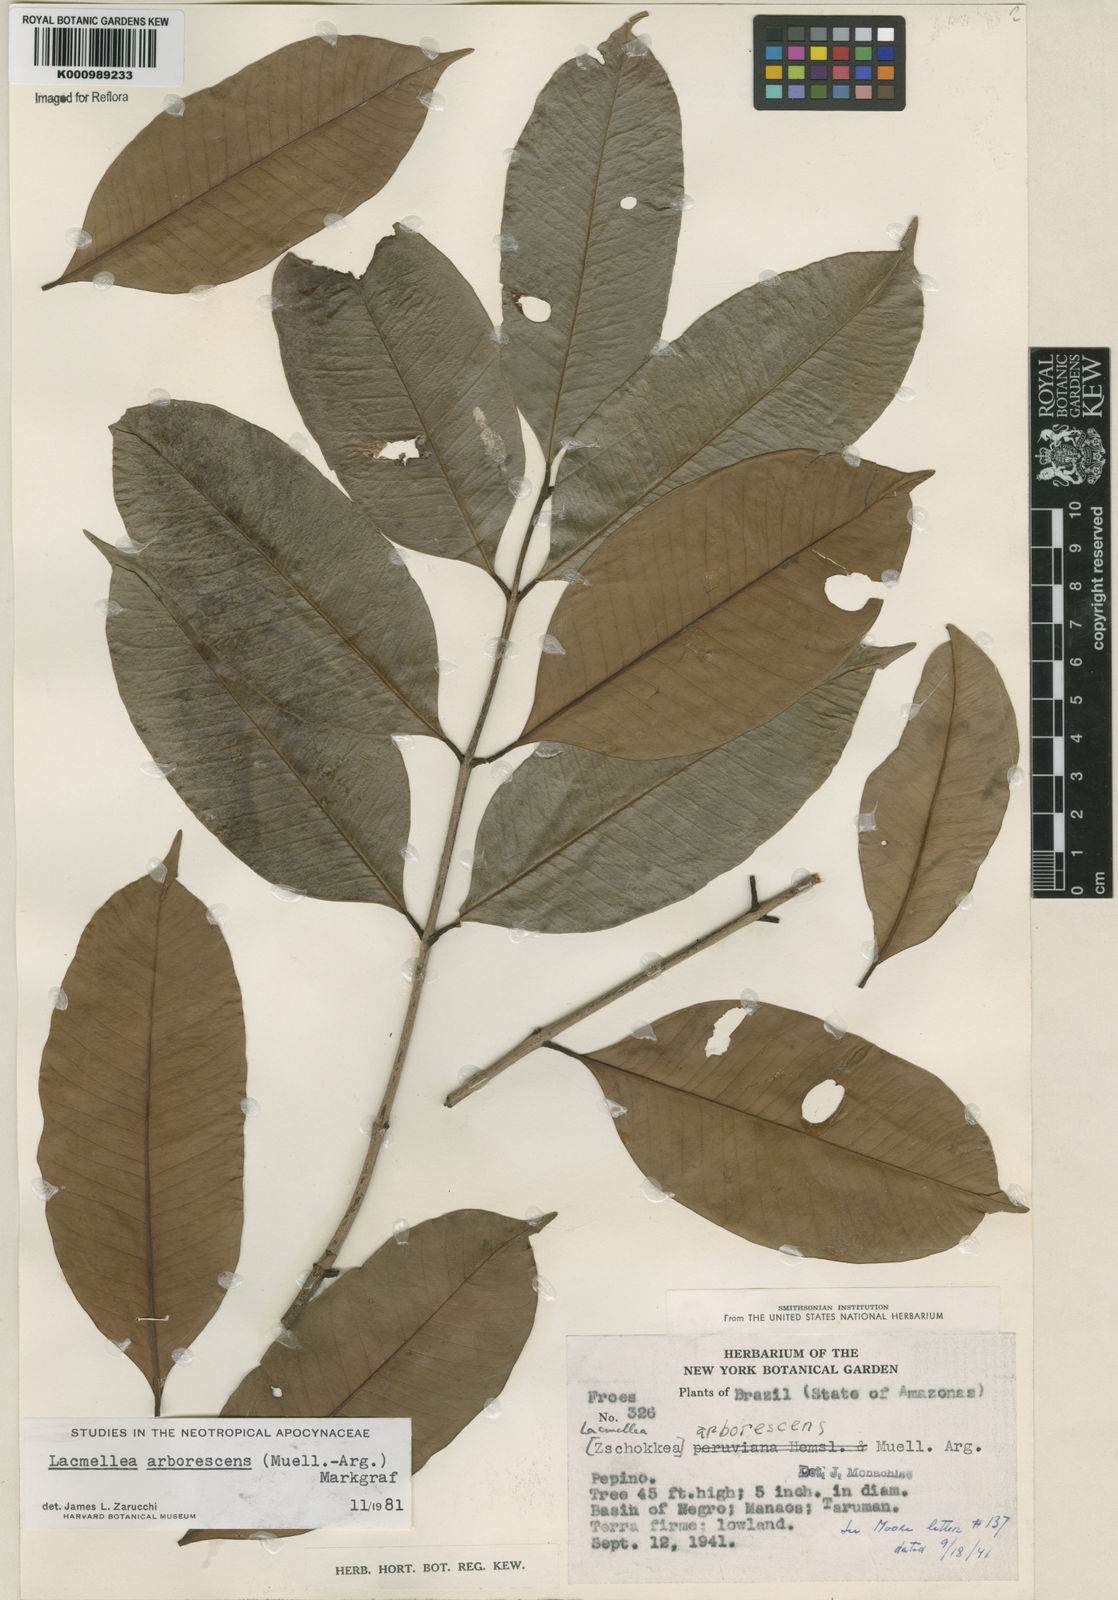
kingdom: Plantae
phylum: Tracheophyta
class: Magnoliopsida
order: Gentianales
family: Apocynaceae
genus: Lacmellea
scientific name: Lacmellea
